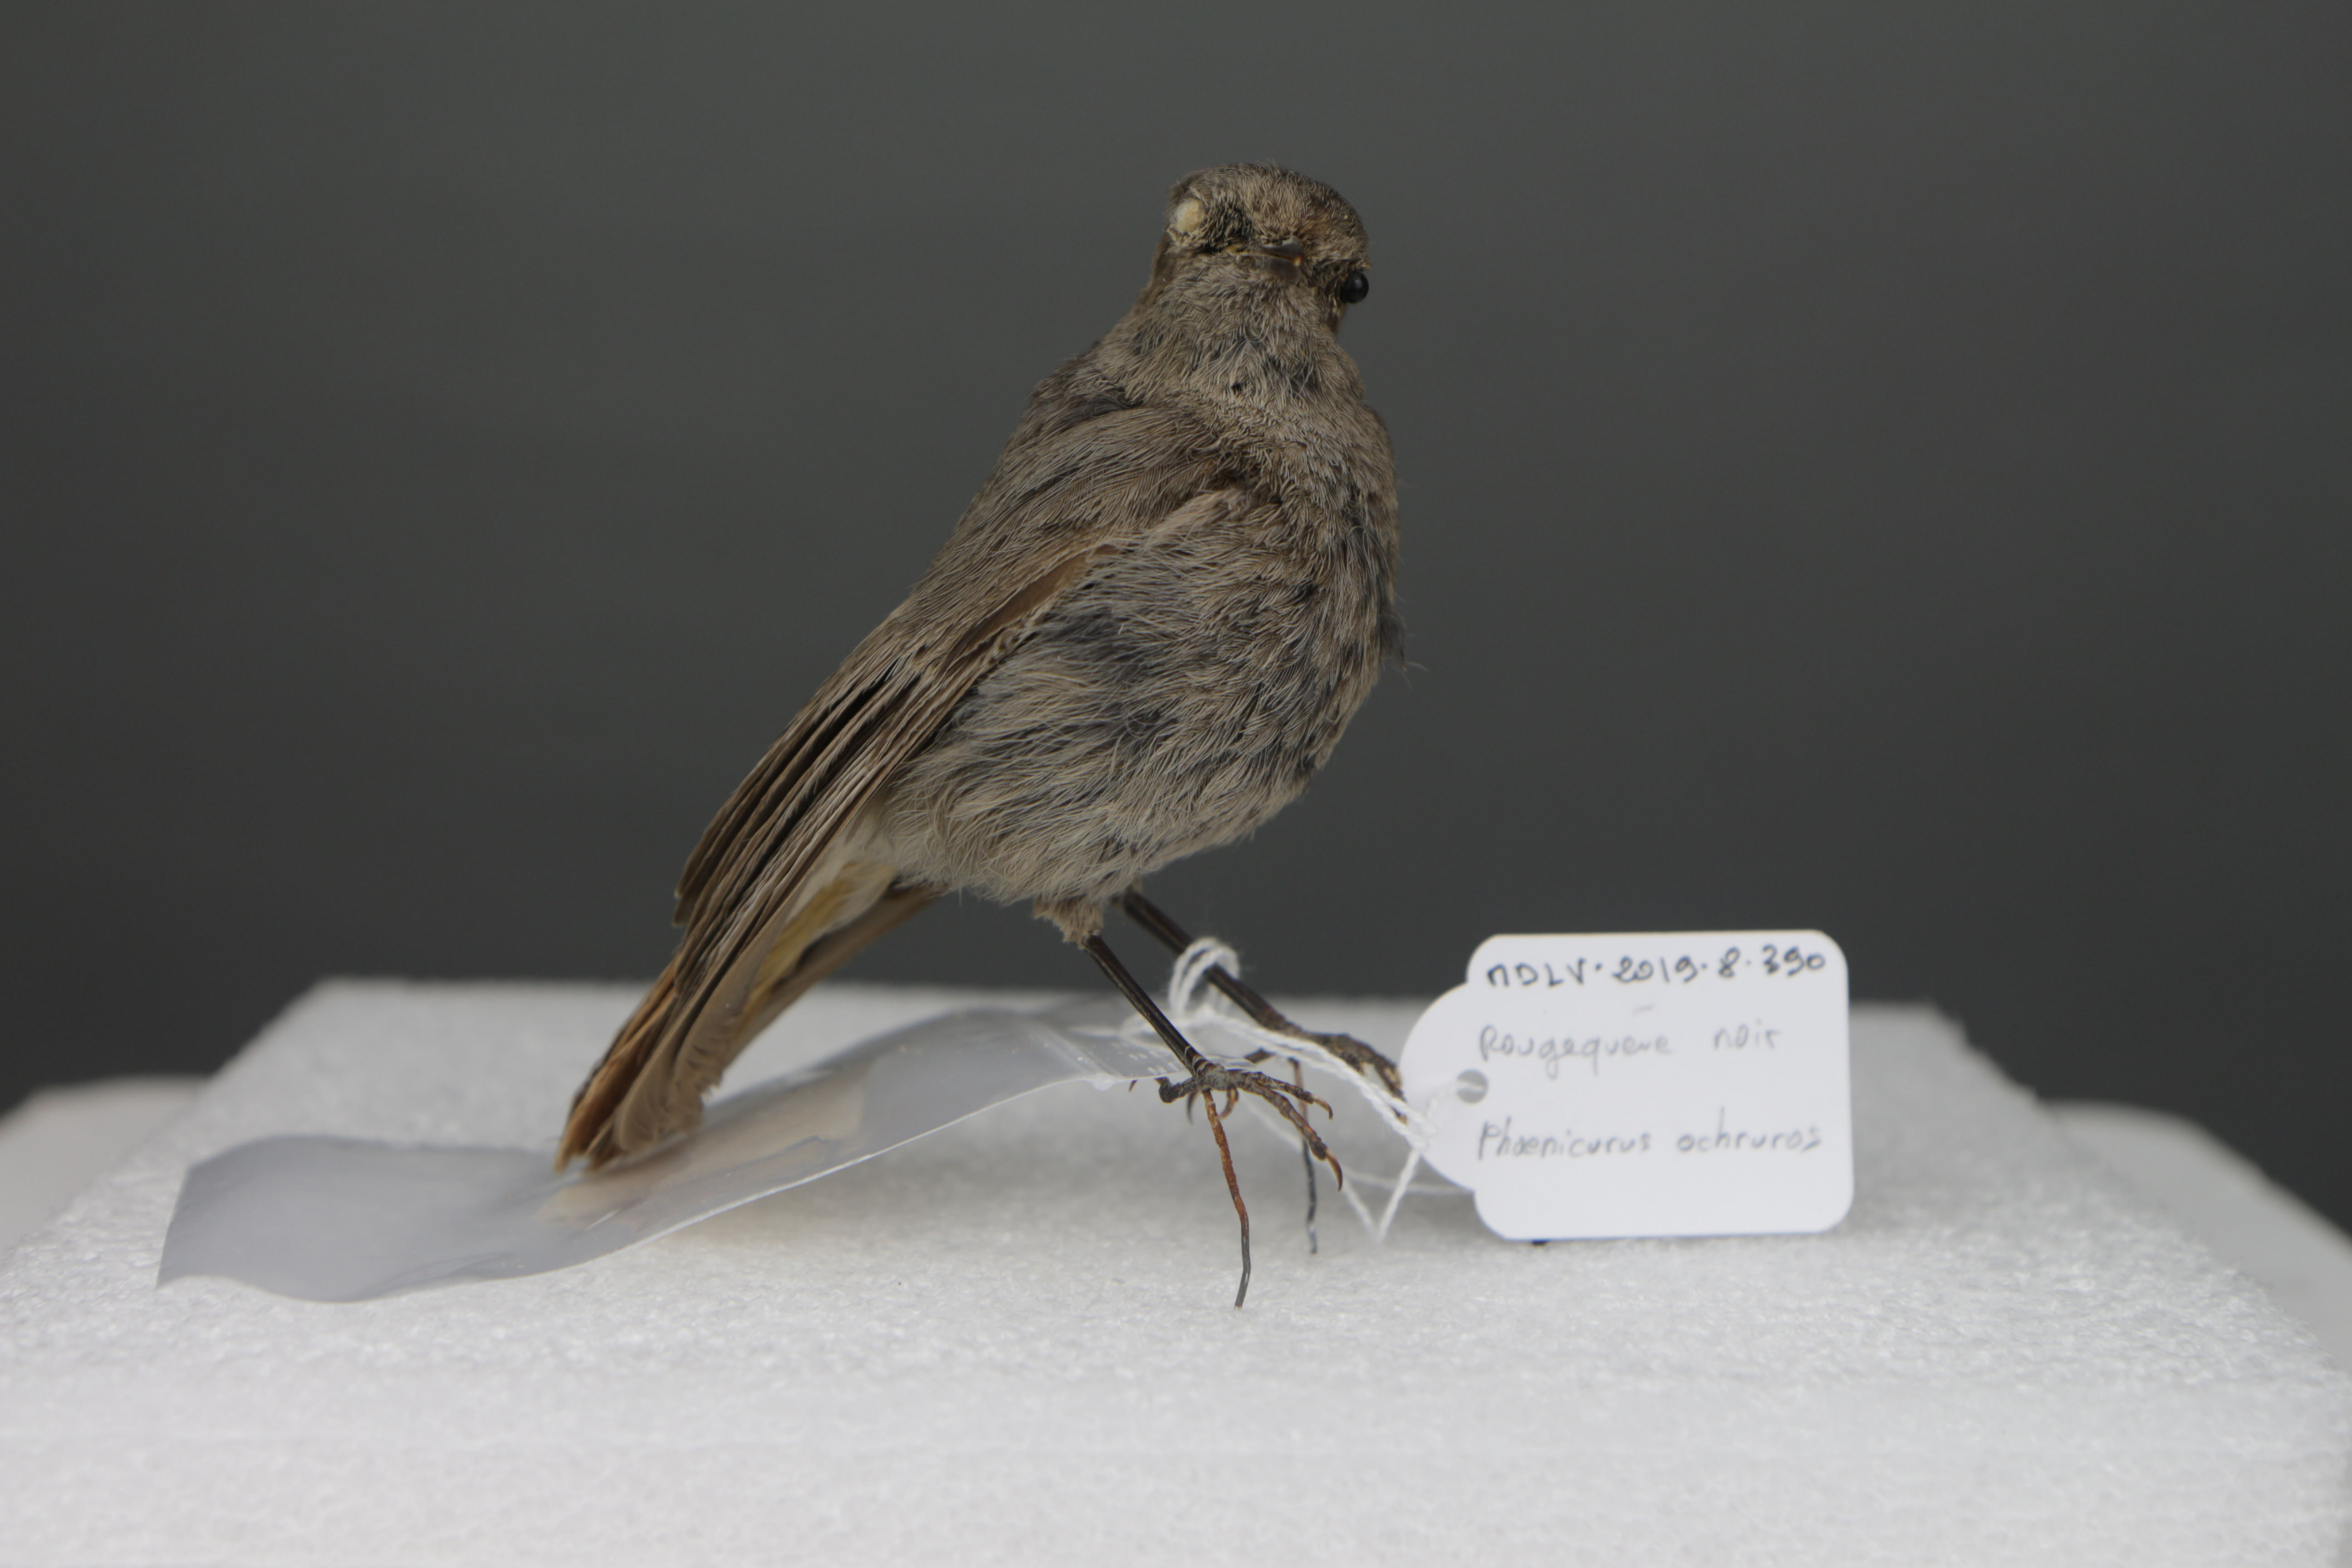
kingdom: Animalia
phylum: Chordata
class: Aves
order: Passeriformes
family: Muscicapidae
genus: Phoenicurus
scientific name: Phoenicurus ochruros
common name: Black redstart
